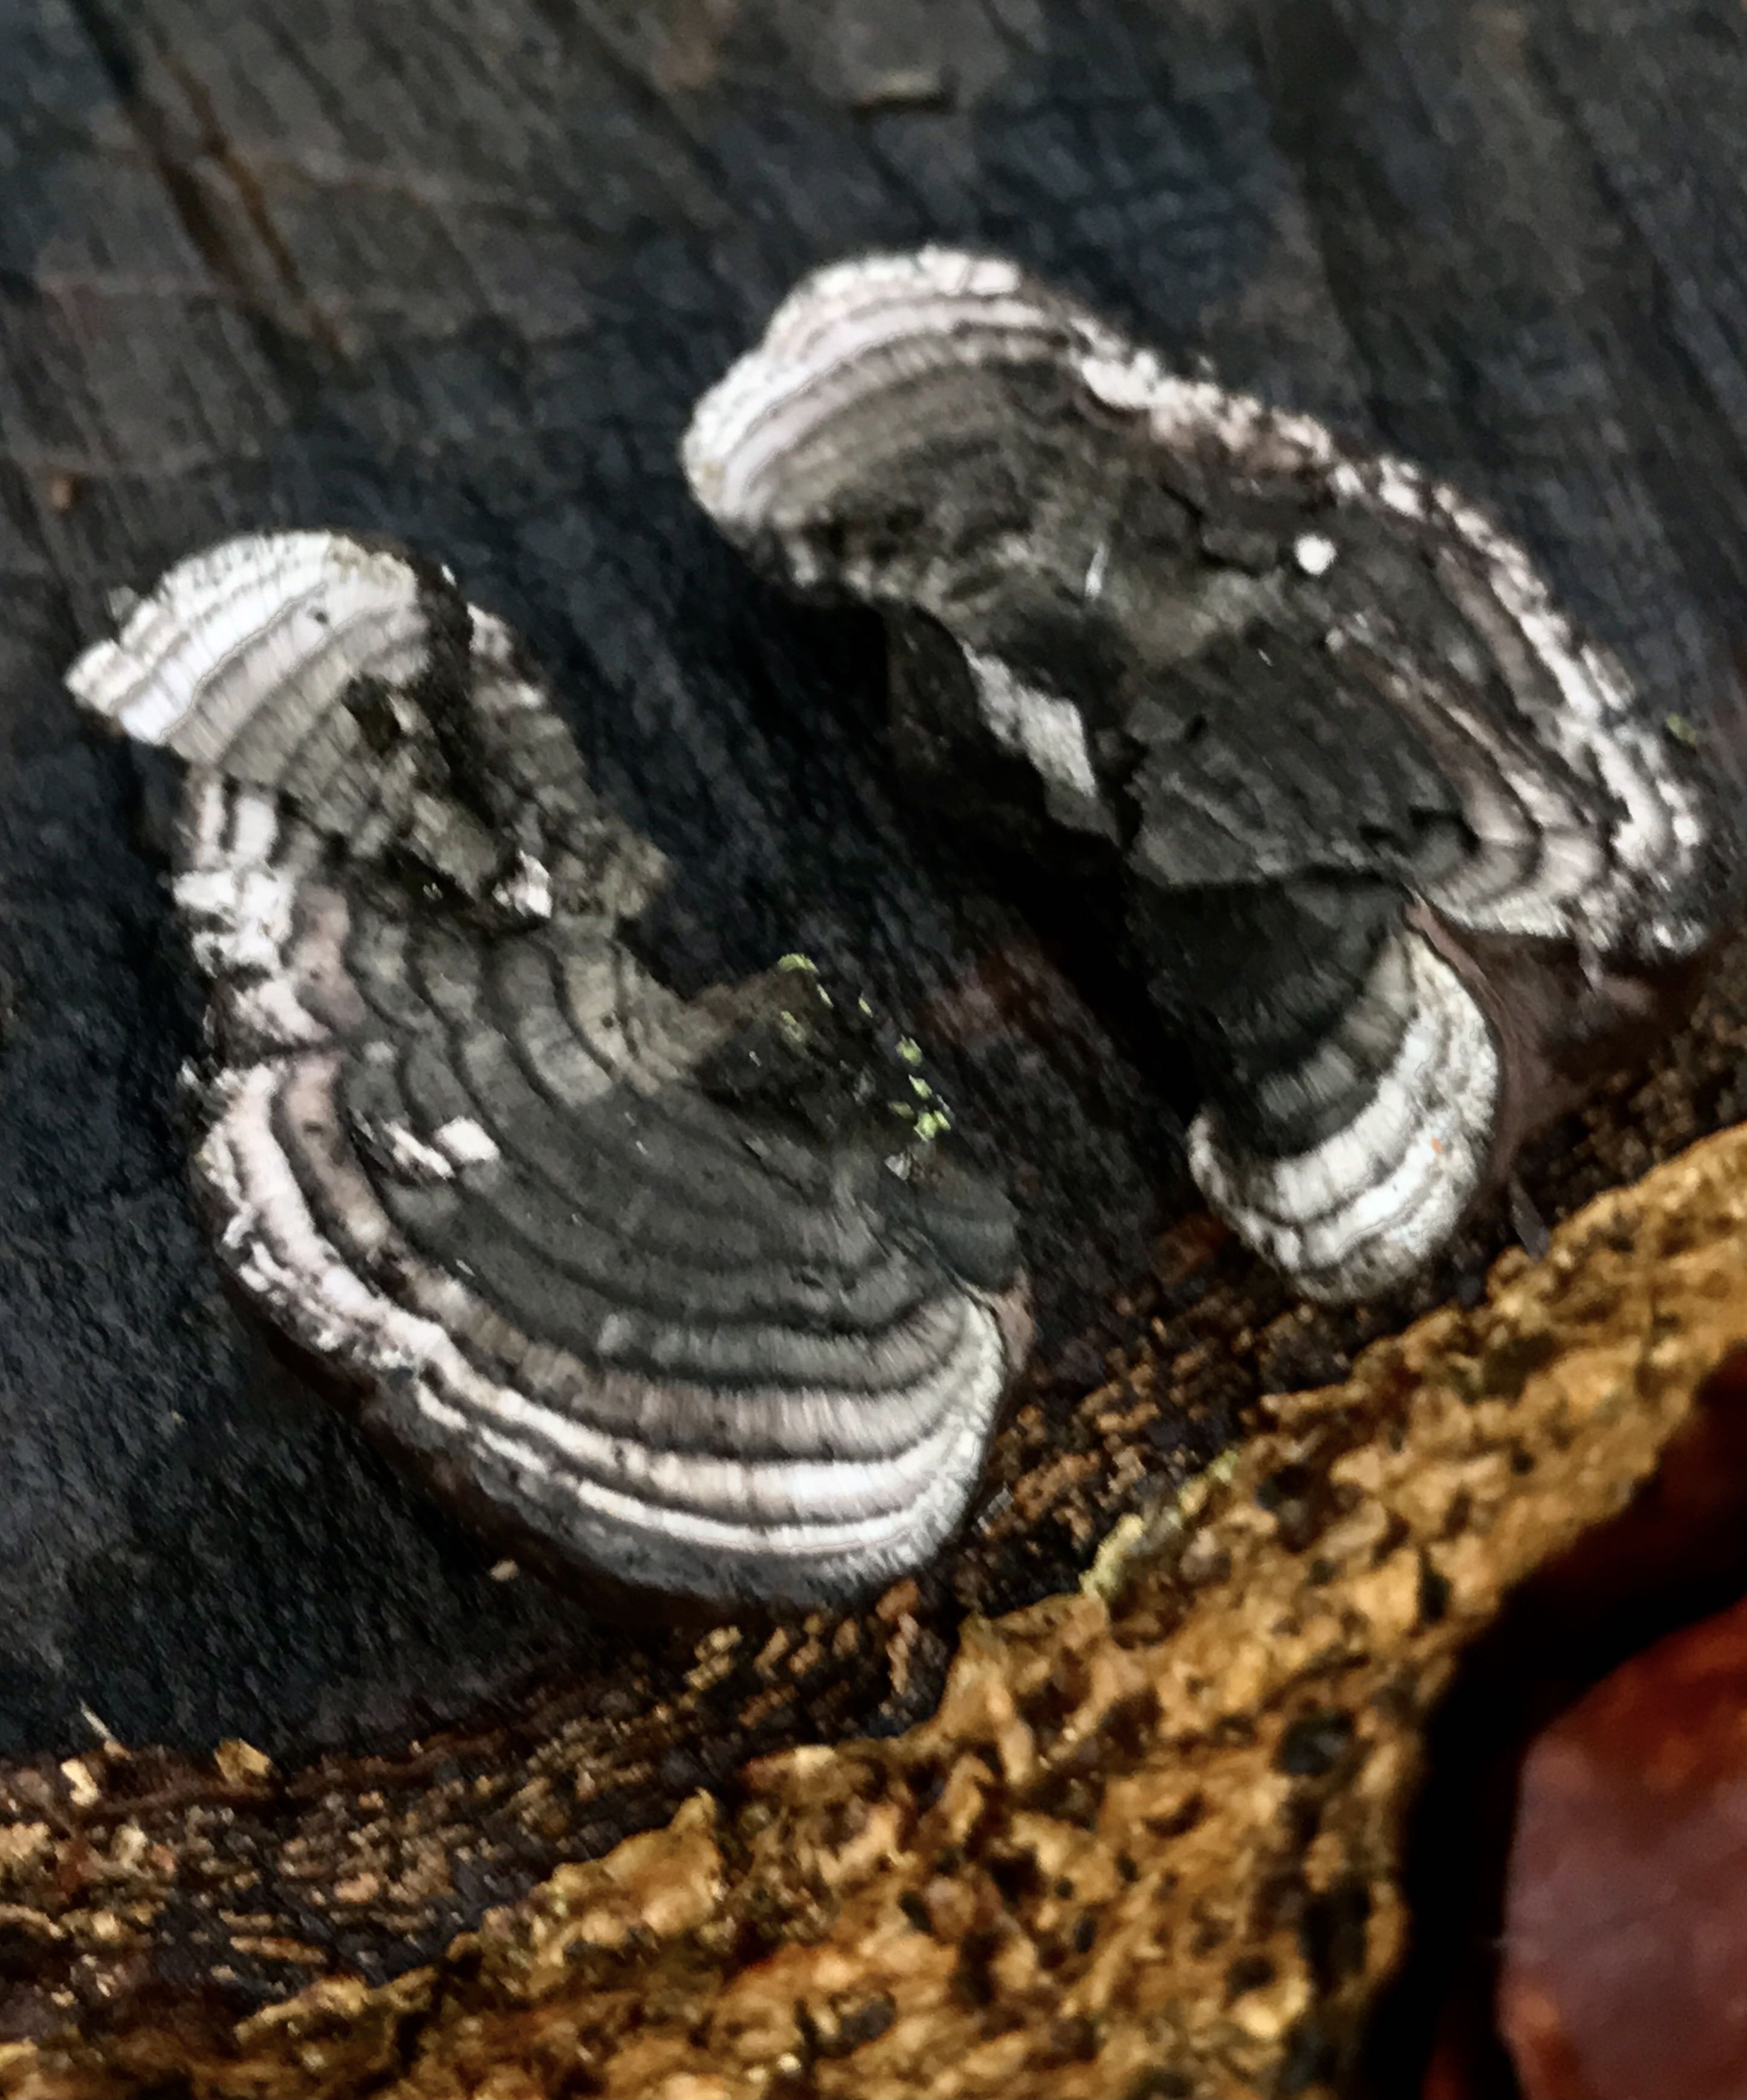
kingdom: Fungi
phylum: Ascomycota
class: Sordariomycetes
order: Xylariales
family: Hypoxylaceae
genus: Daldinia
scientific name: Daldinia concentrica
